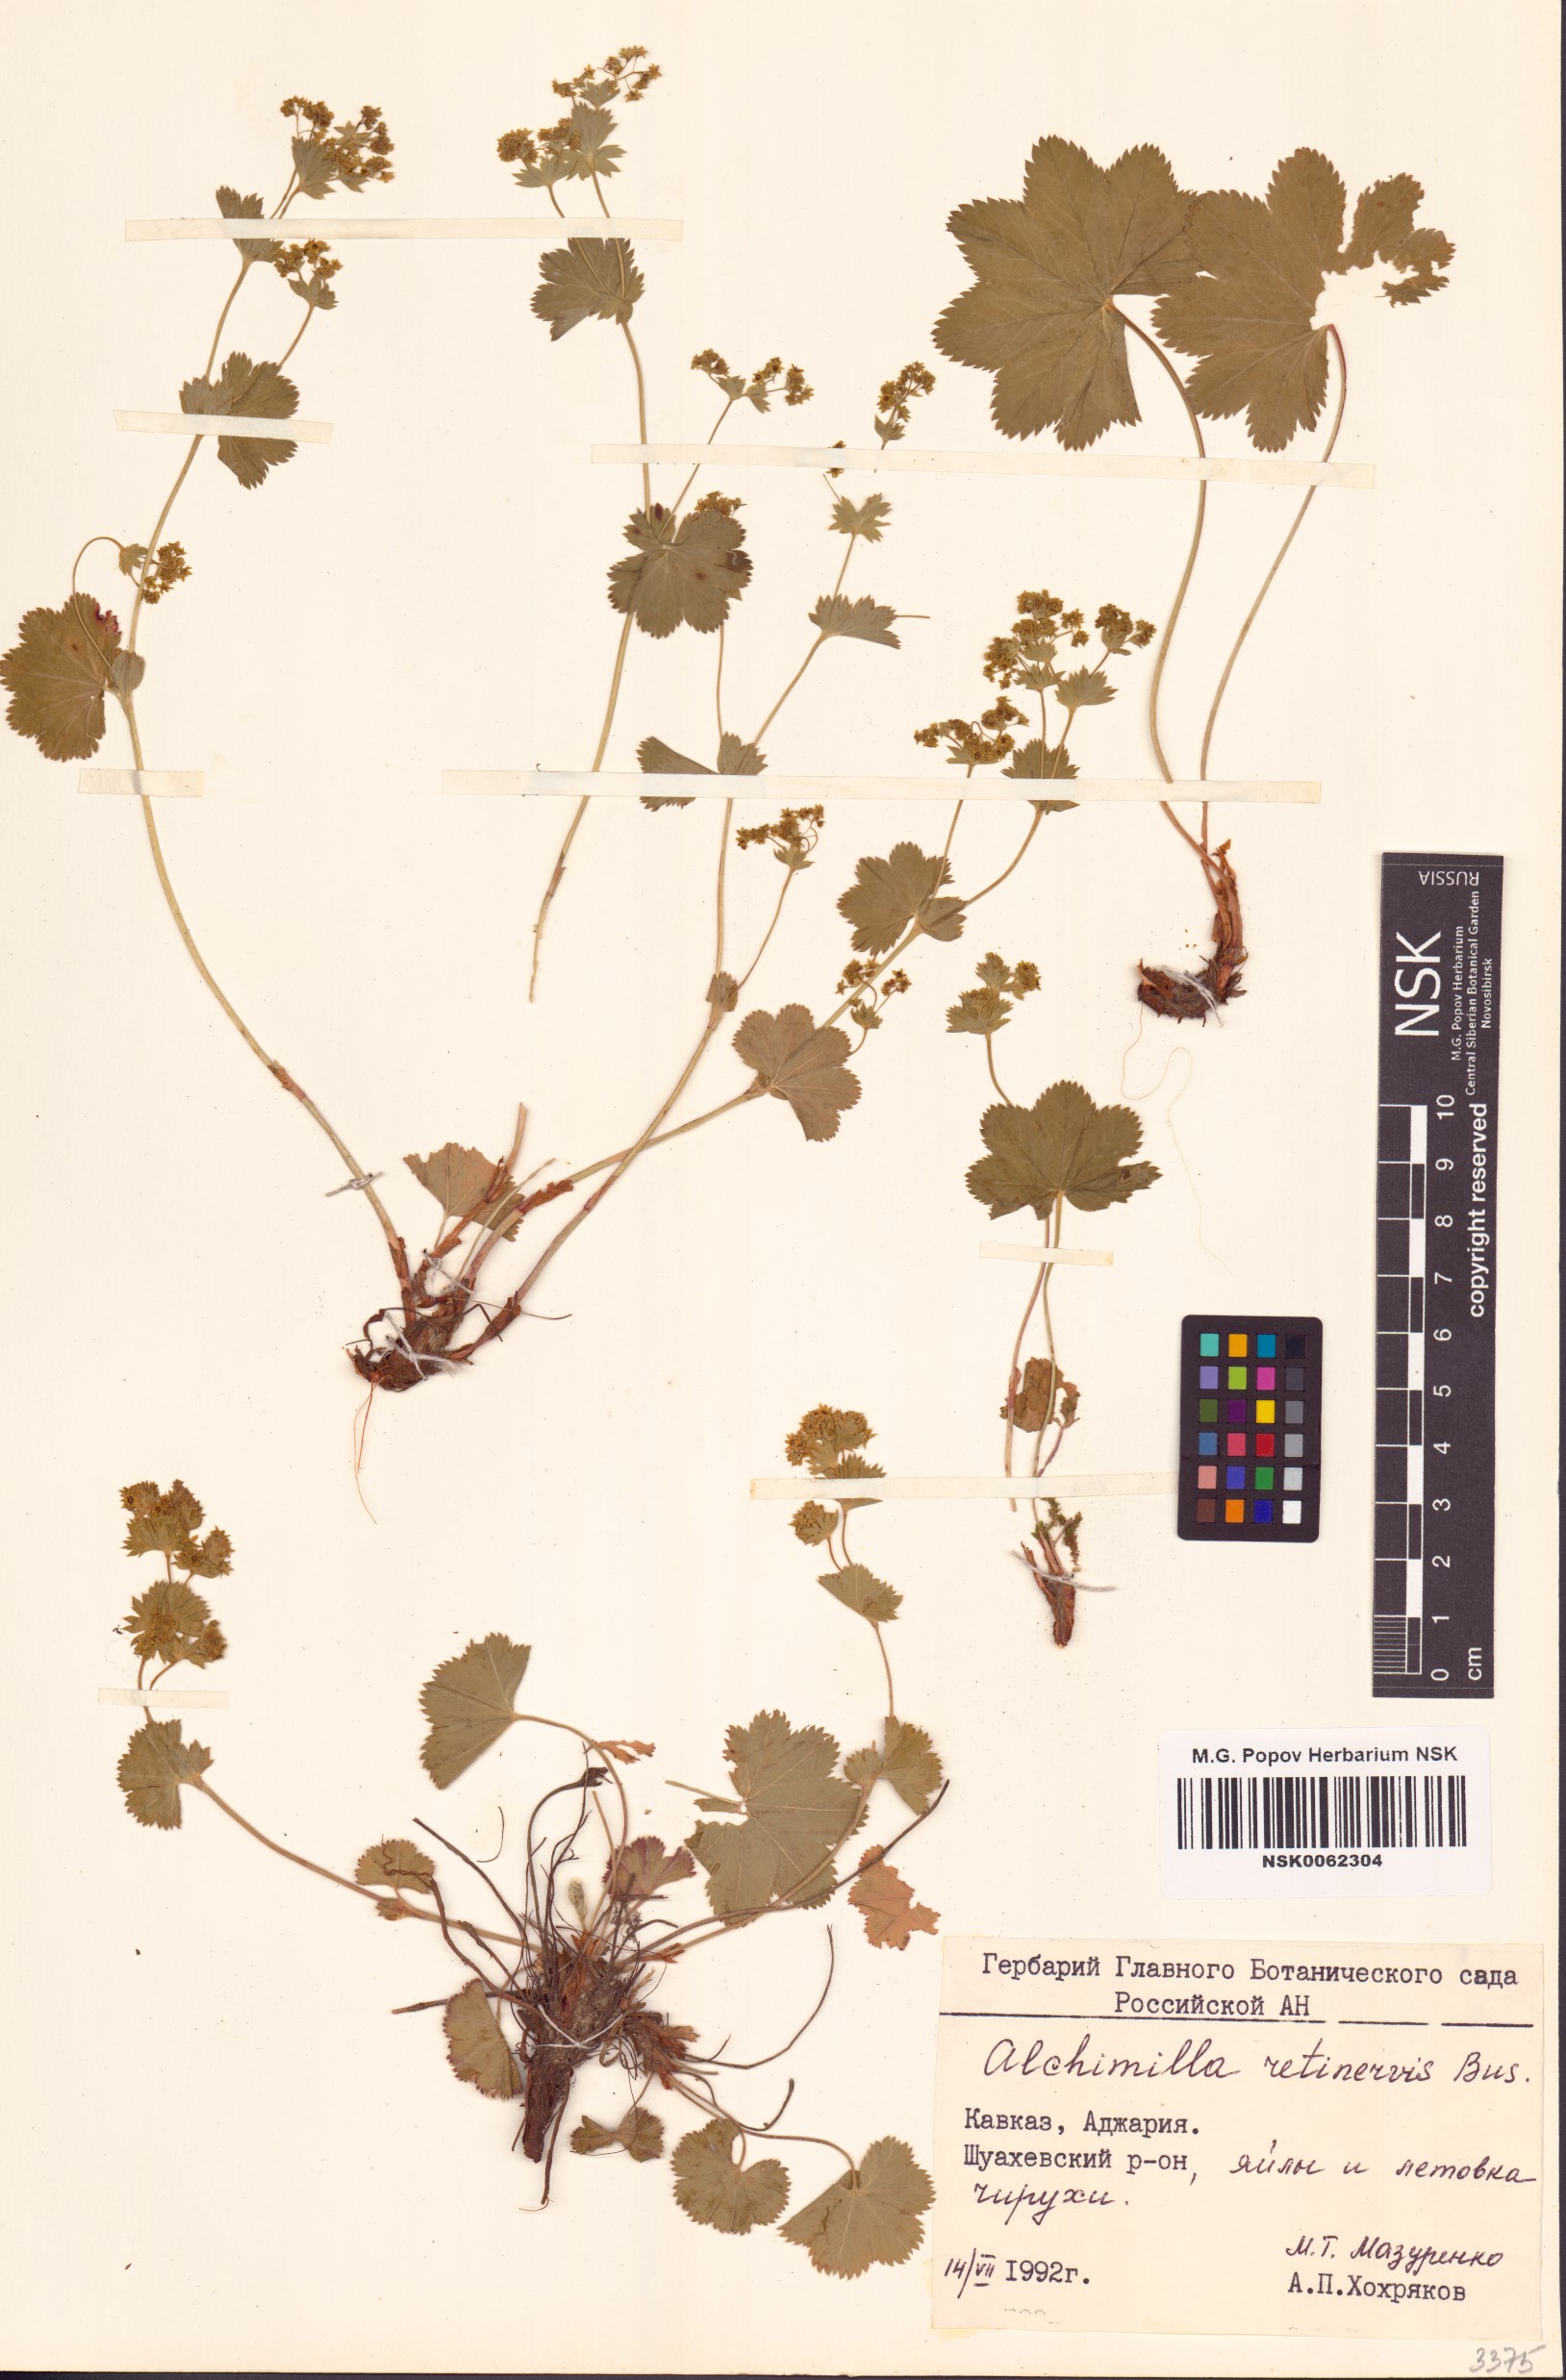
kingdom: Plantae
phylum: Tracheophyta
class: Magnoliopsida
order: Rosales
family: Rosaceae
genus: Alchemilla
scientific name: Alchemilla retinervis
